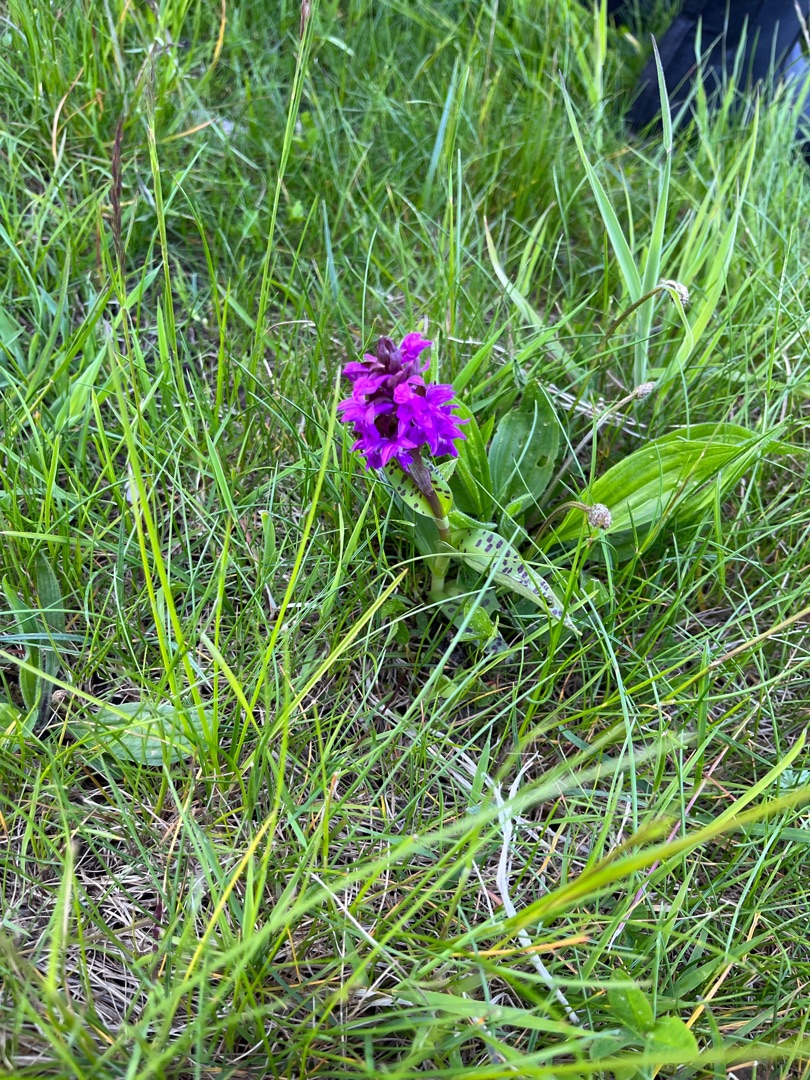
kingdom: Plantae
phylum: Tracheophyta
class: Liliopsida
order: Asparagales
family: Orchidaceae
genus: Dactylorhiza
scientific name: Dactylorhiza majalis
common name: Maj-gøgeurt
